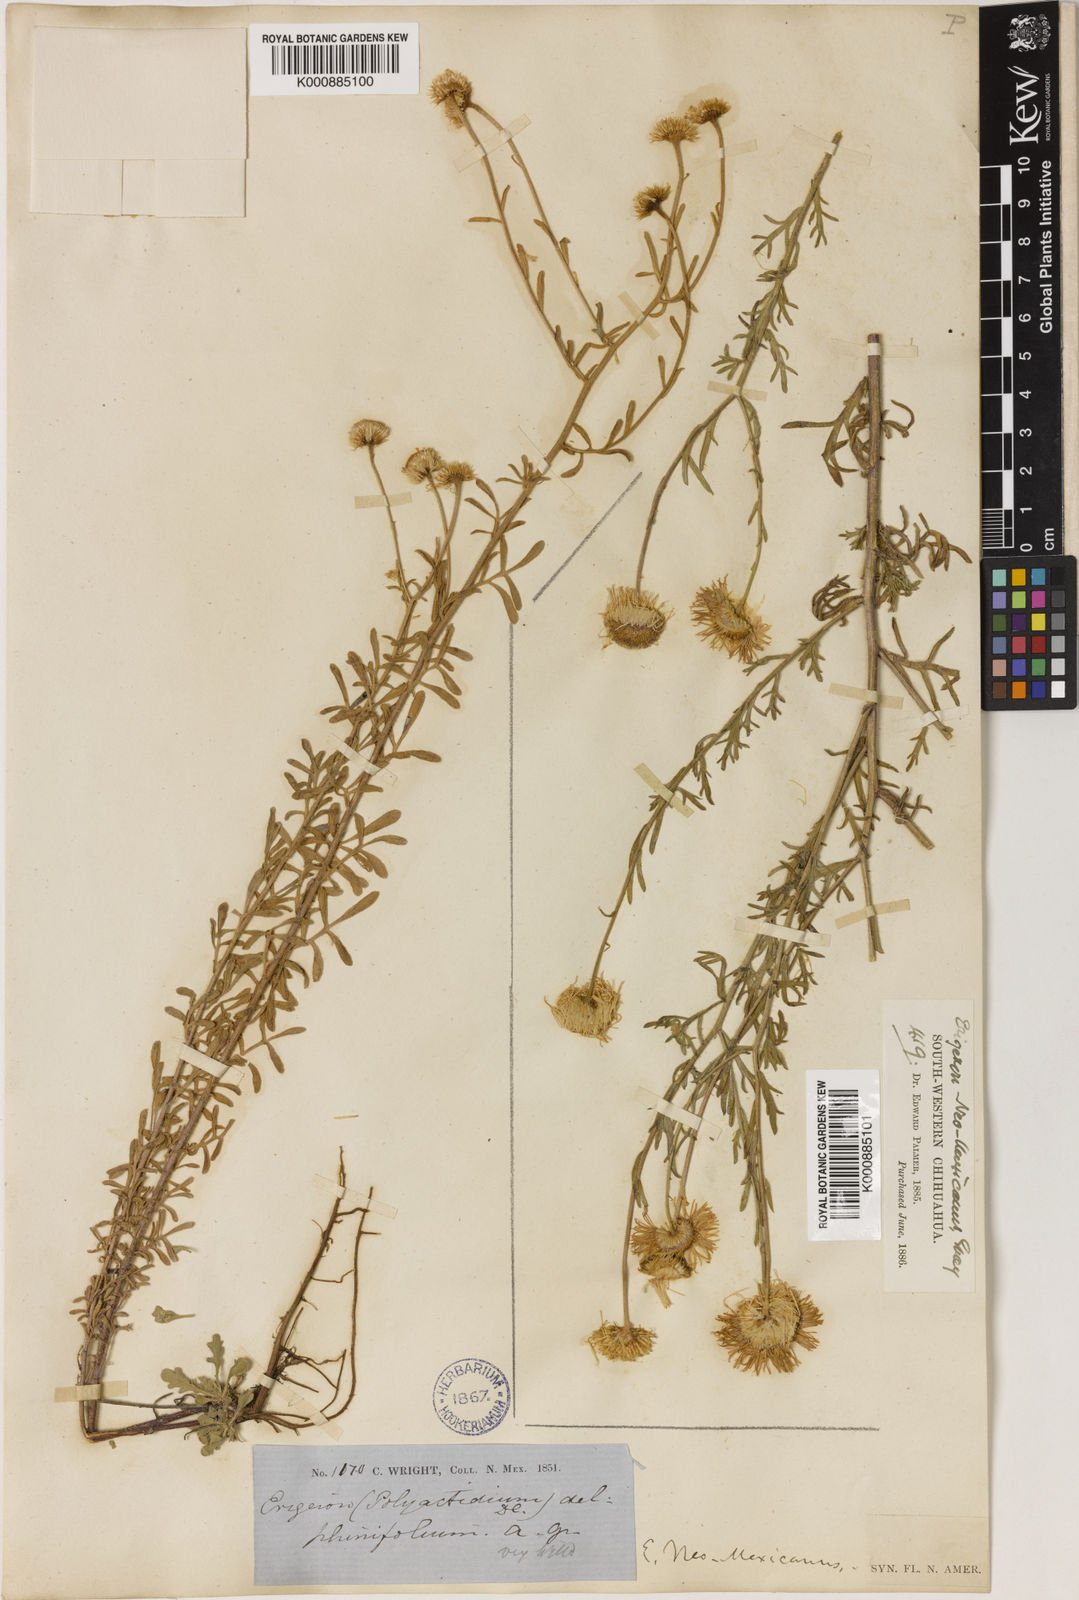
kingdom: Plantae
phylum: Tracheophyta
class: Magnoliopsida
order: Asterales
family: Asteraceae
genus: Erigeron
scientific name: Erigeron
